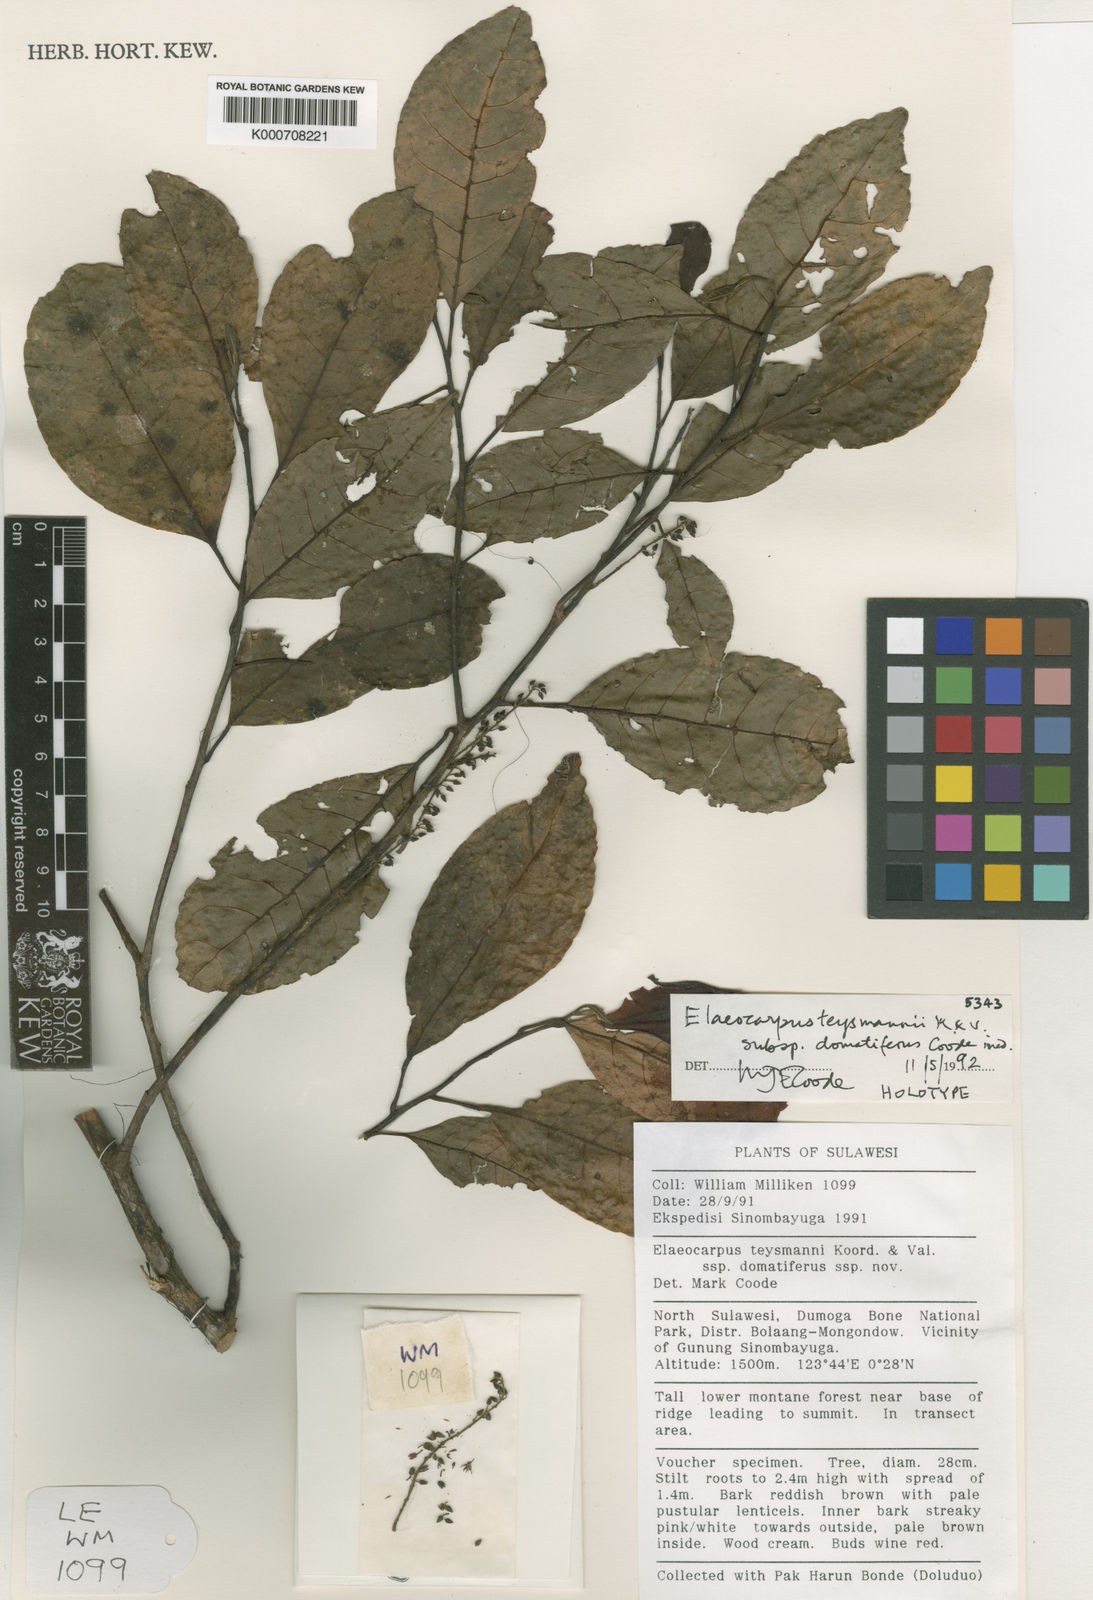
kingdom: Plantae
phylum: Tracheophyta
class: Magnoliopsida
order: Oxalidales
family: Elaeocarpaceae
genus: Elaeocarpus
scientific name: Elaeocarpus teysmannii
